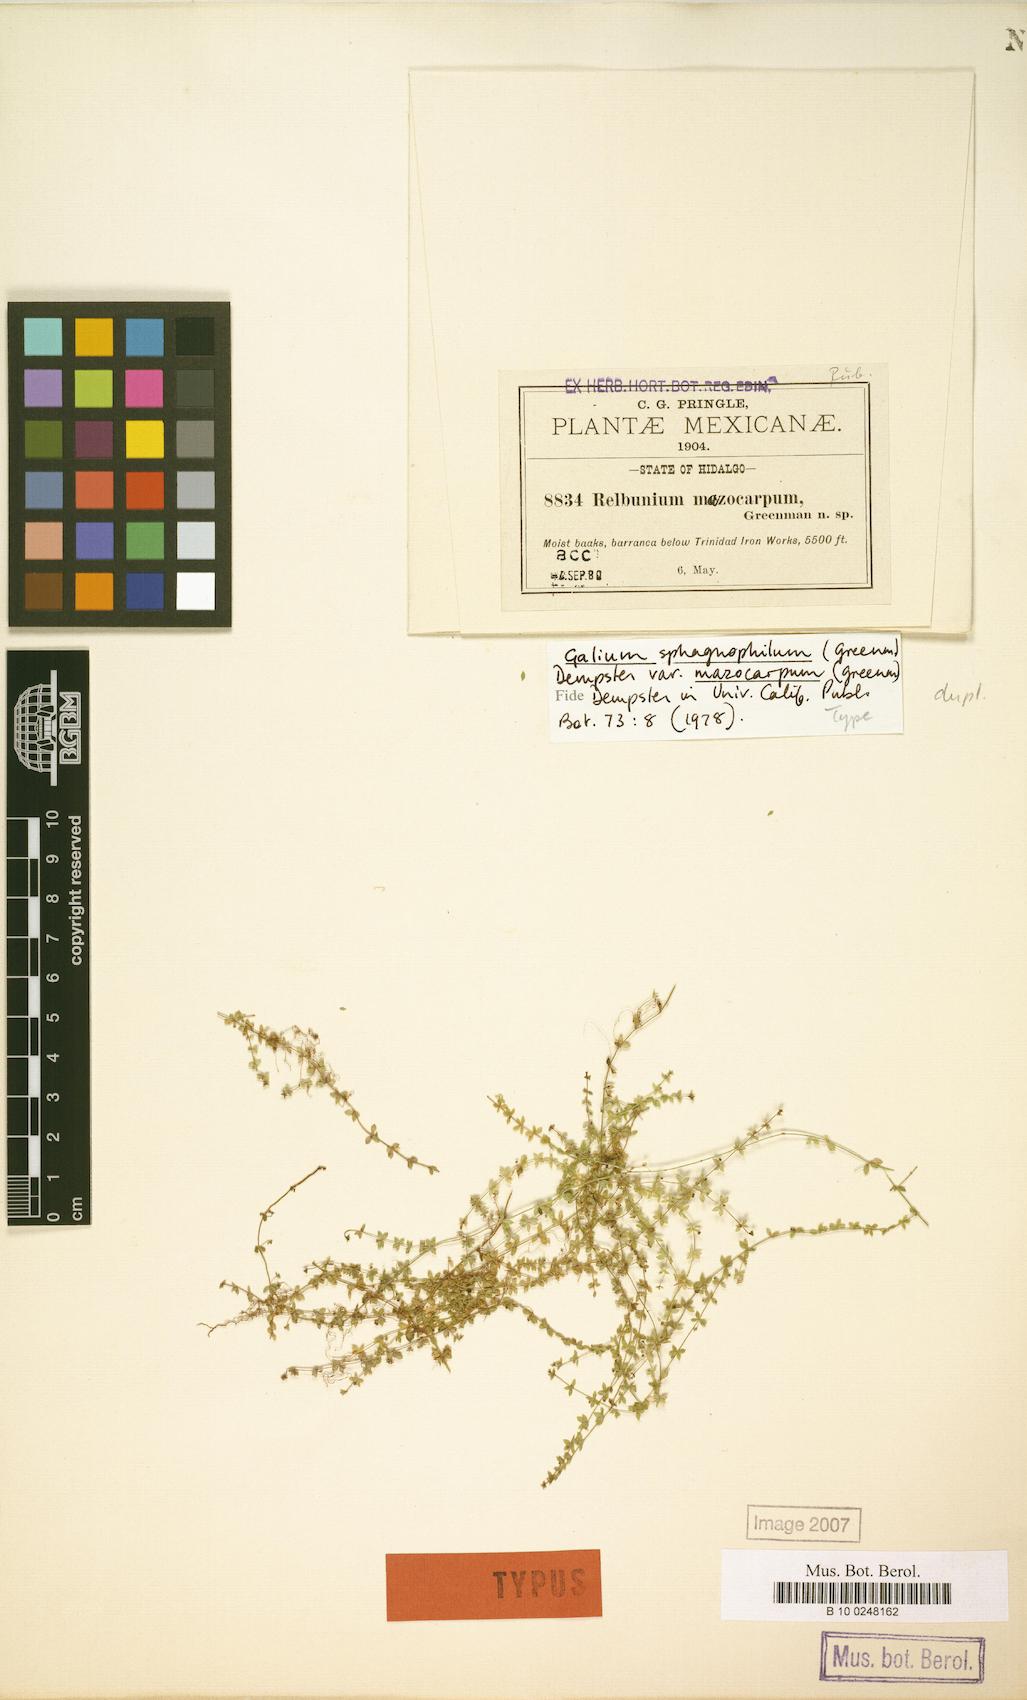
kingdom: Plantae
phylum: Tracheophyta
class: Magnoliopsida
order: Gentianales
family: Rubiaceae
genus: Galium
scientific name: Galium sphagnophilum
